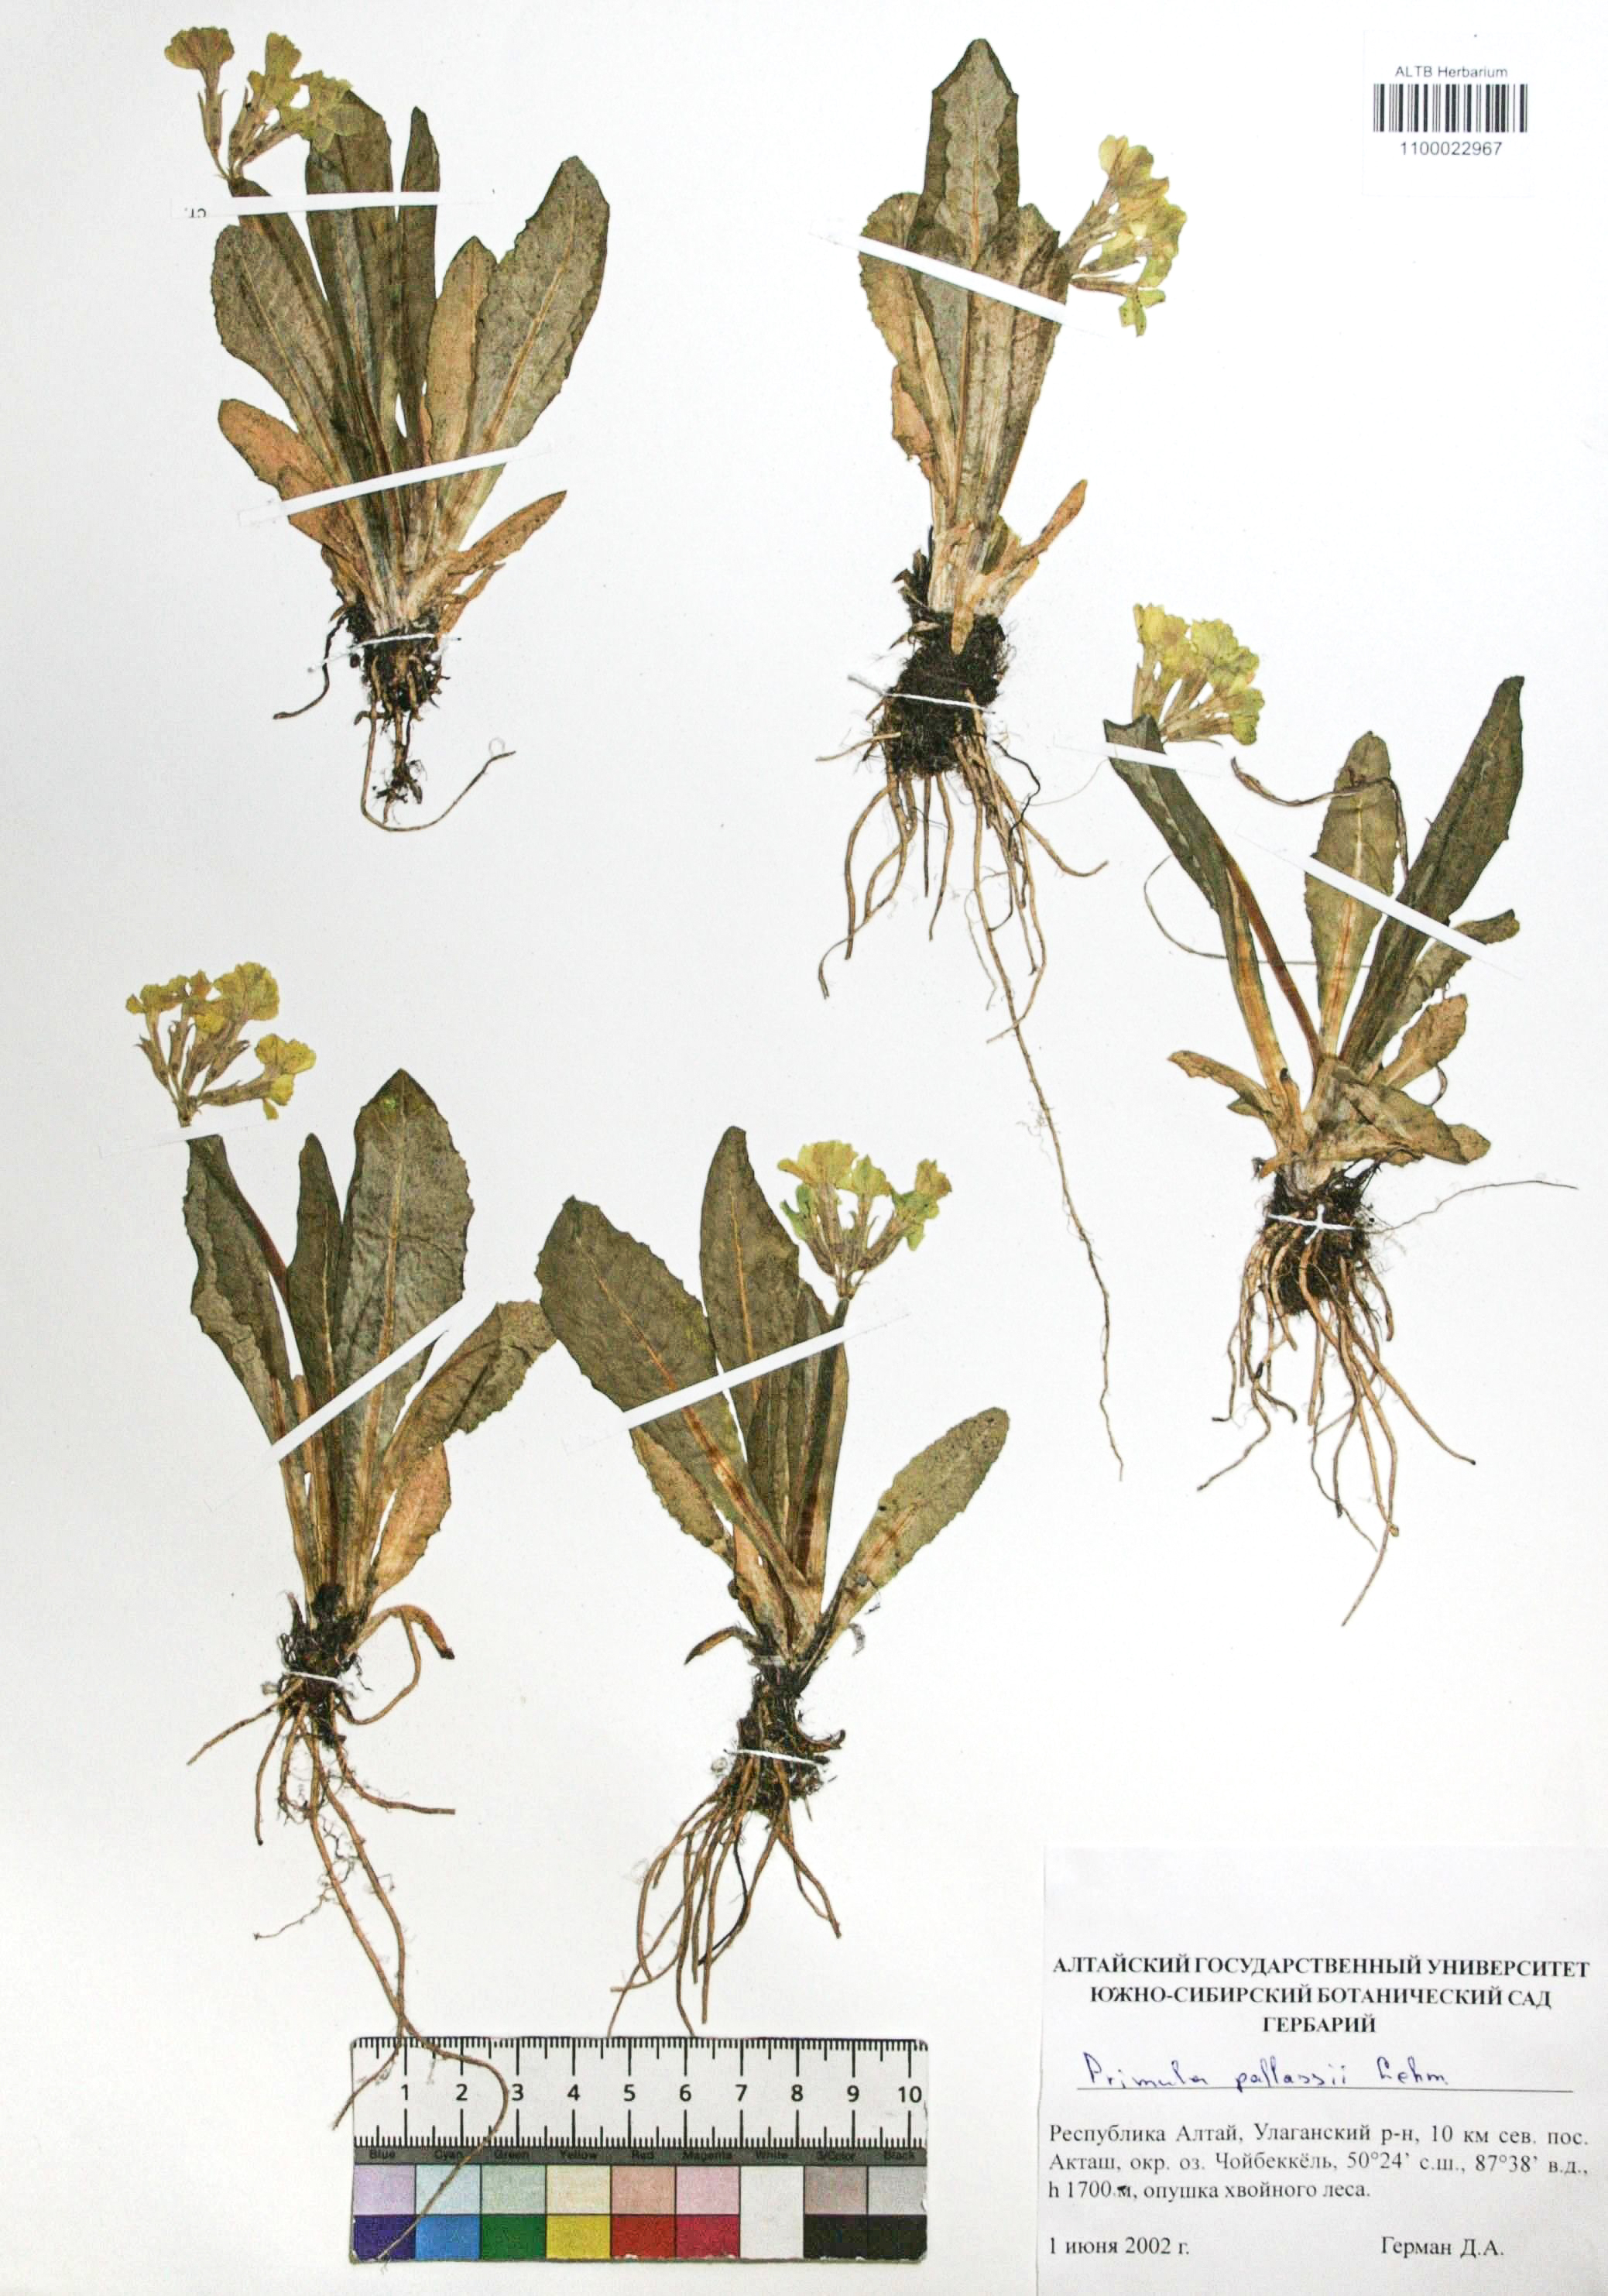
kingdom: Plantae
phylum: Tracheophyta
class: Magnoliopsida
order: Ericales
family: Primulaceae
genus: Primula
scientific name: Primula elatior
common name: Oxlip
